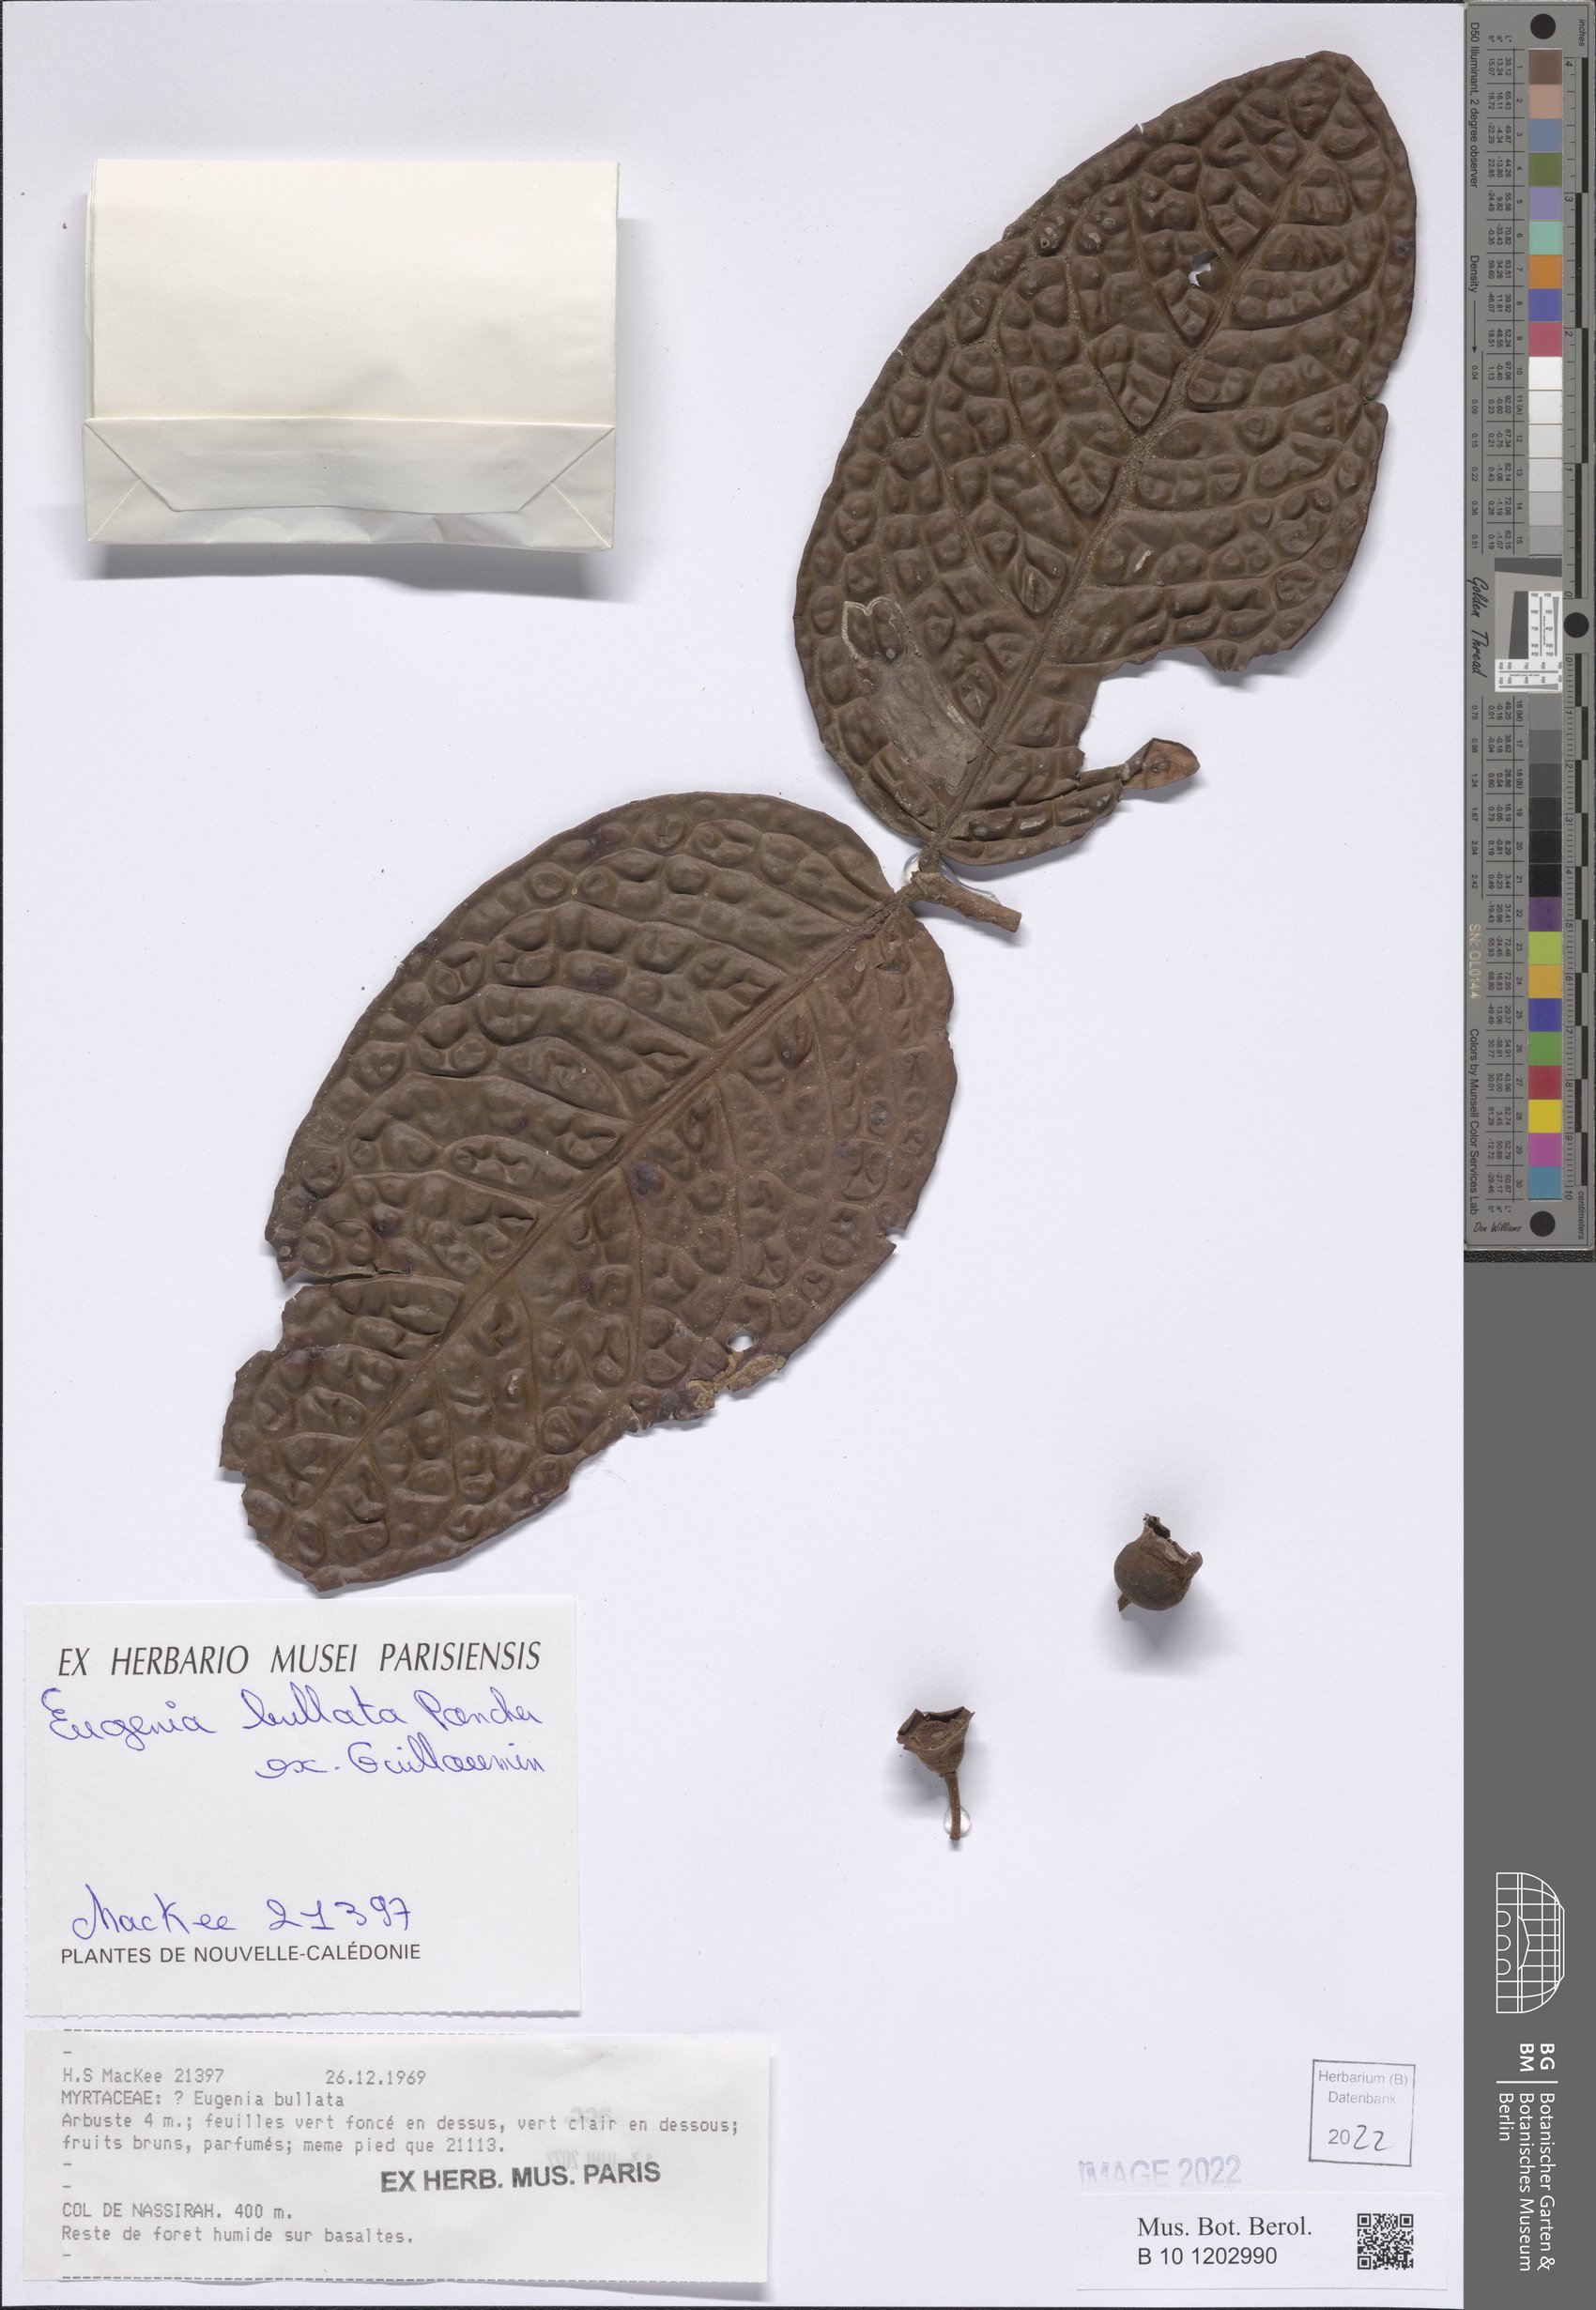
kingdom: Plantae
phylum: Tracheophyta
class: Magnoliopsida
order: Myrtales
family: Myrtaceae
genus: Eugenia
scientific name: Eugenia bullata
